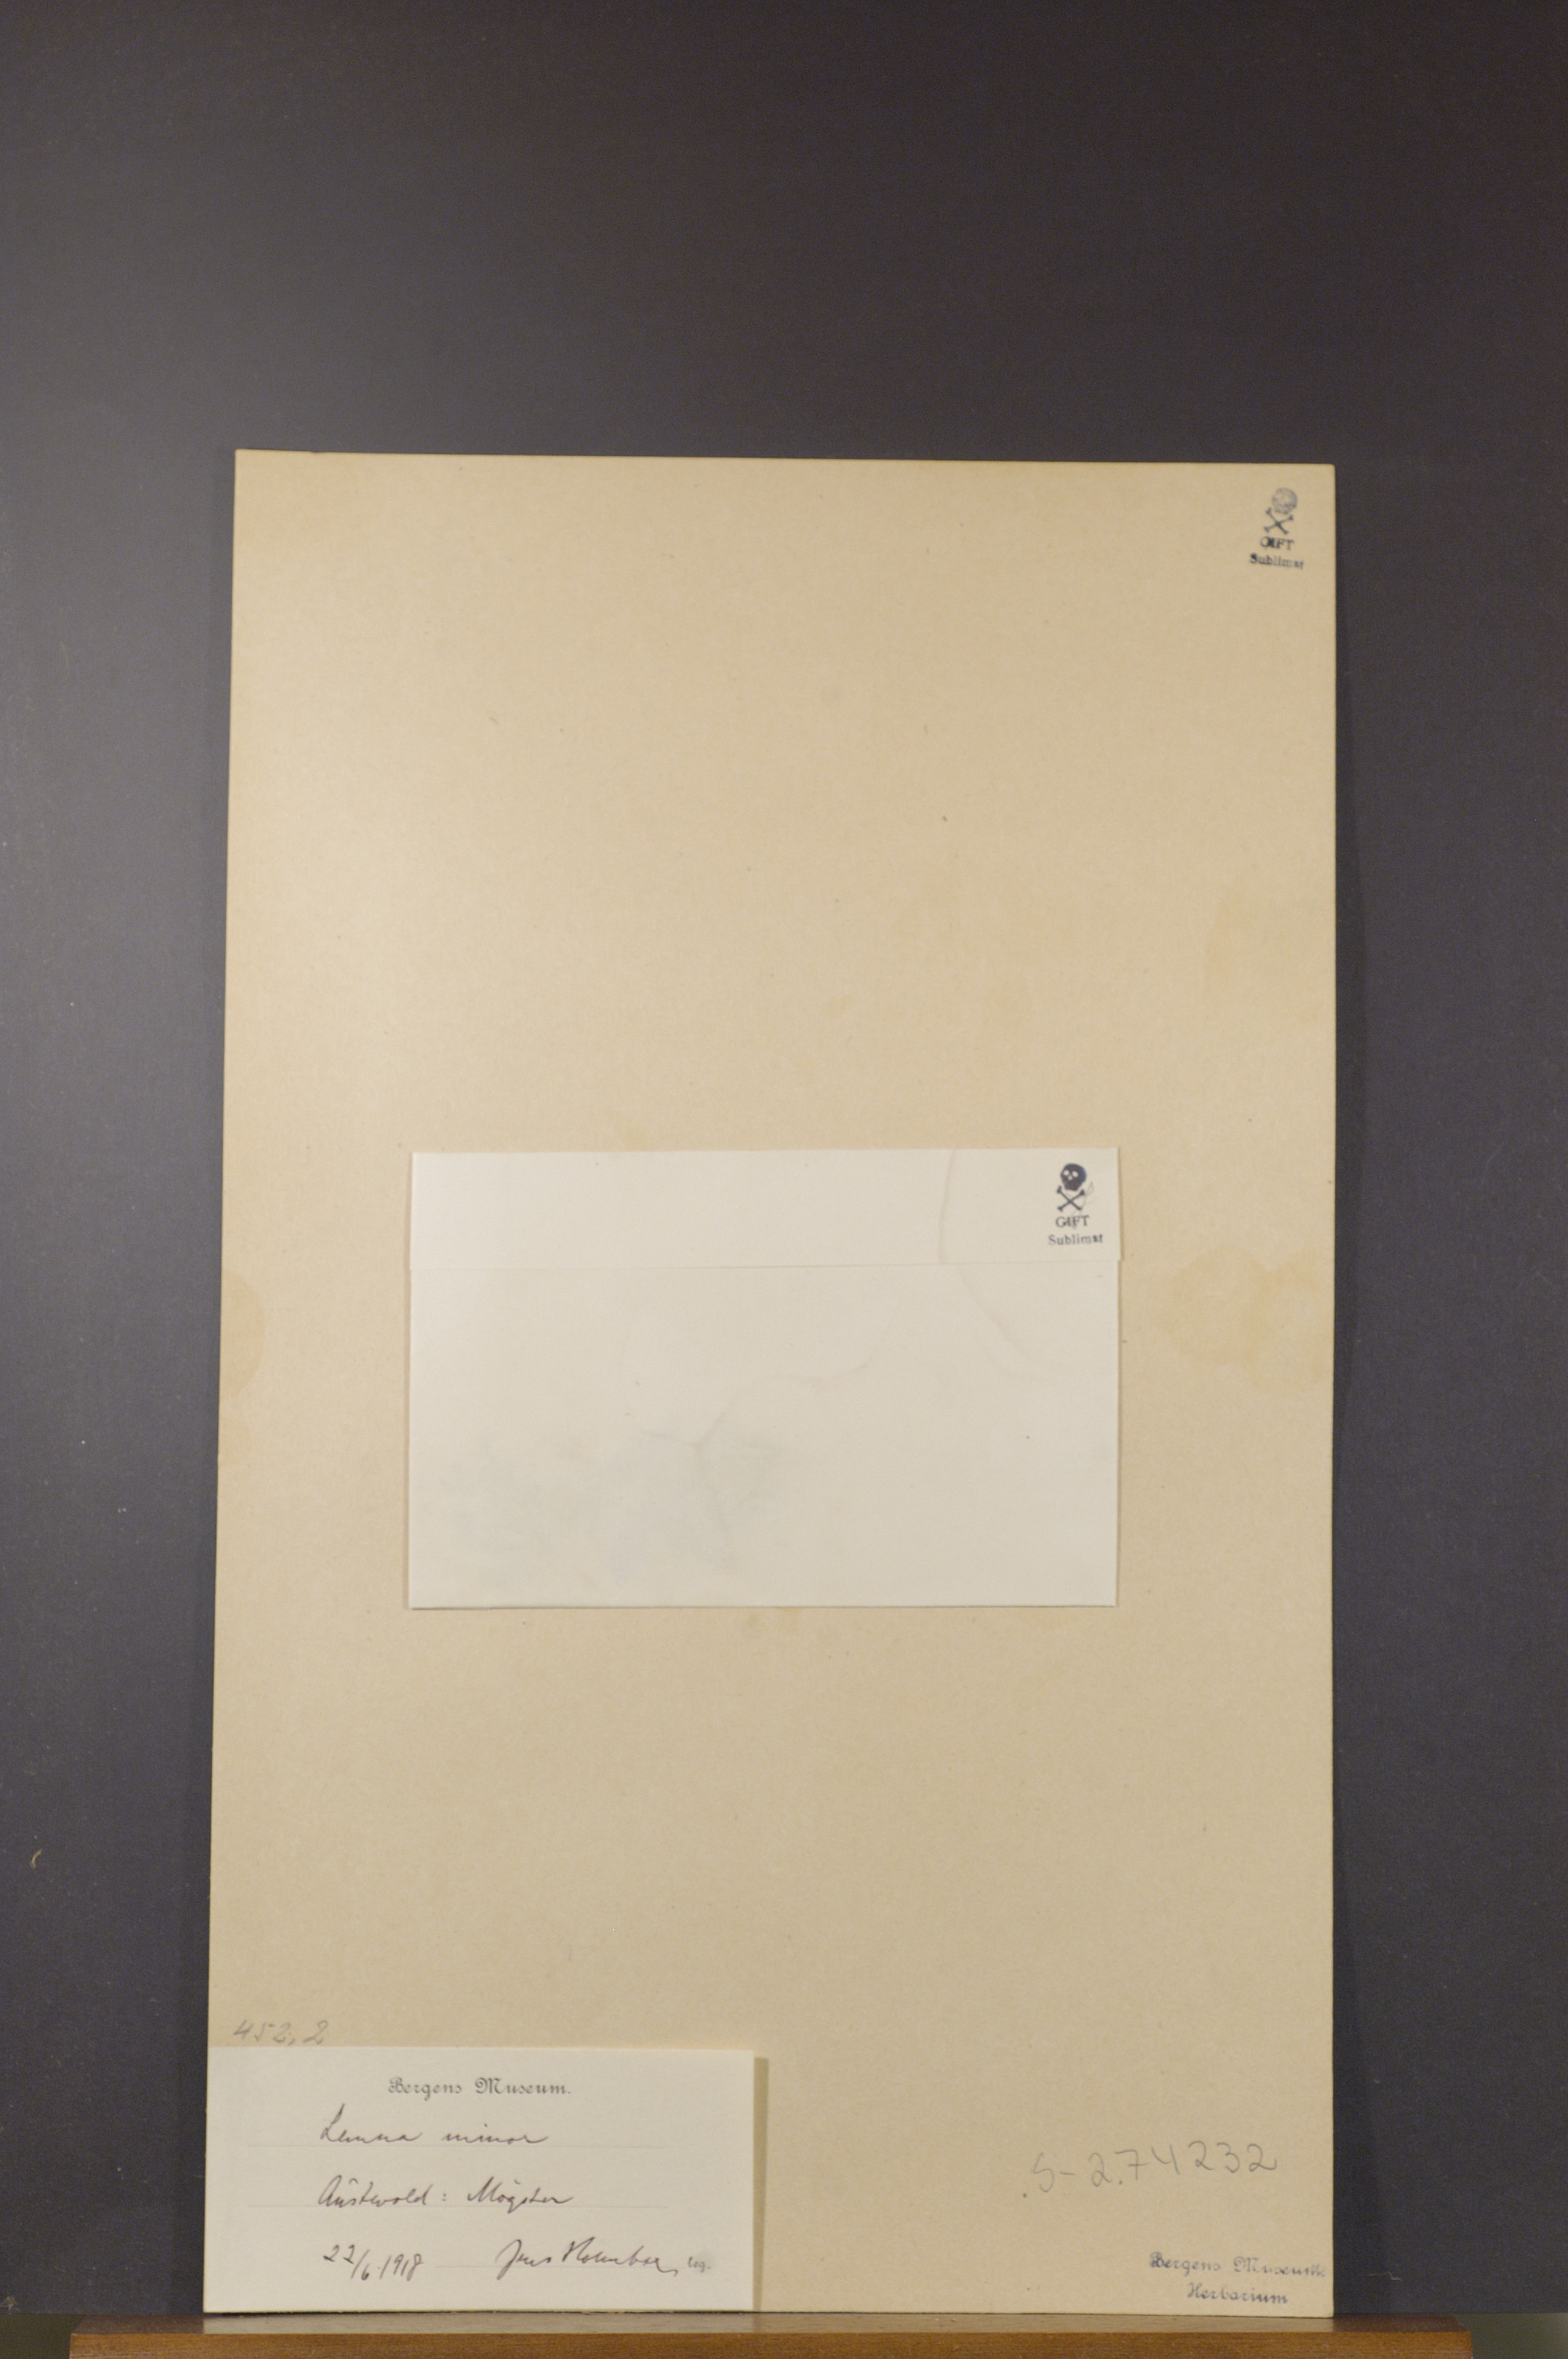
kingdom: Plantae
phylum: Tracheophyta
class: Liliopsida
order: Alismatales
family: Araceae
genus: Lemna
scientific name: Lemna minor
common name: Common duckweed
